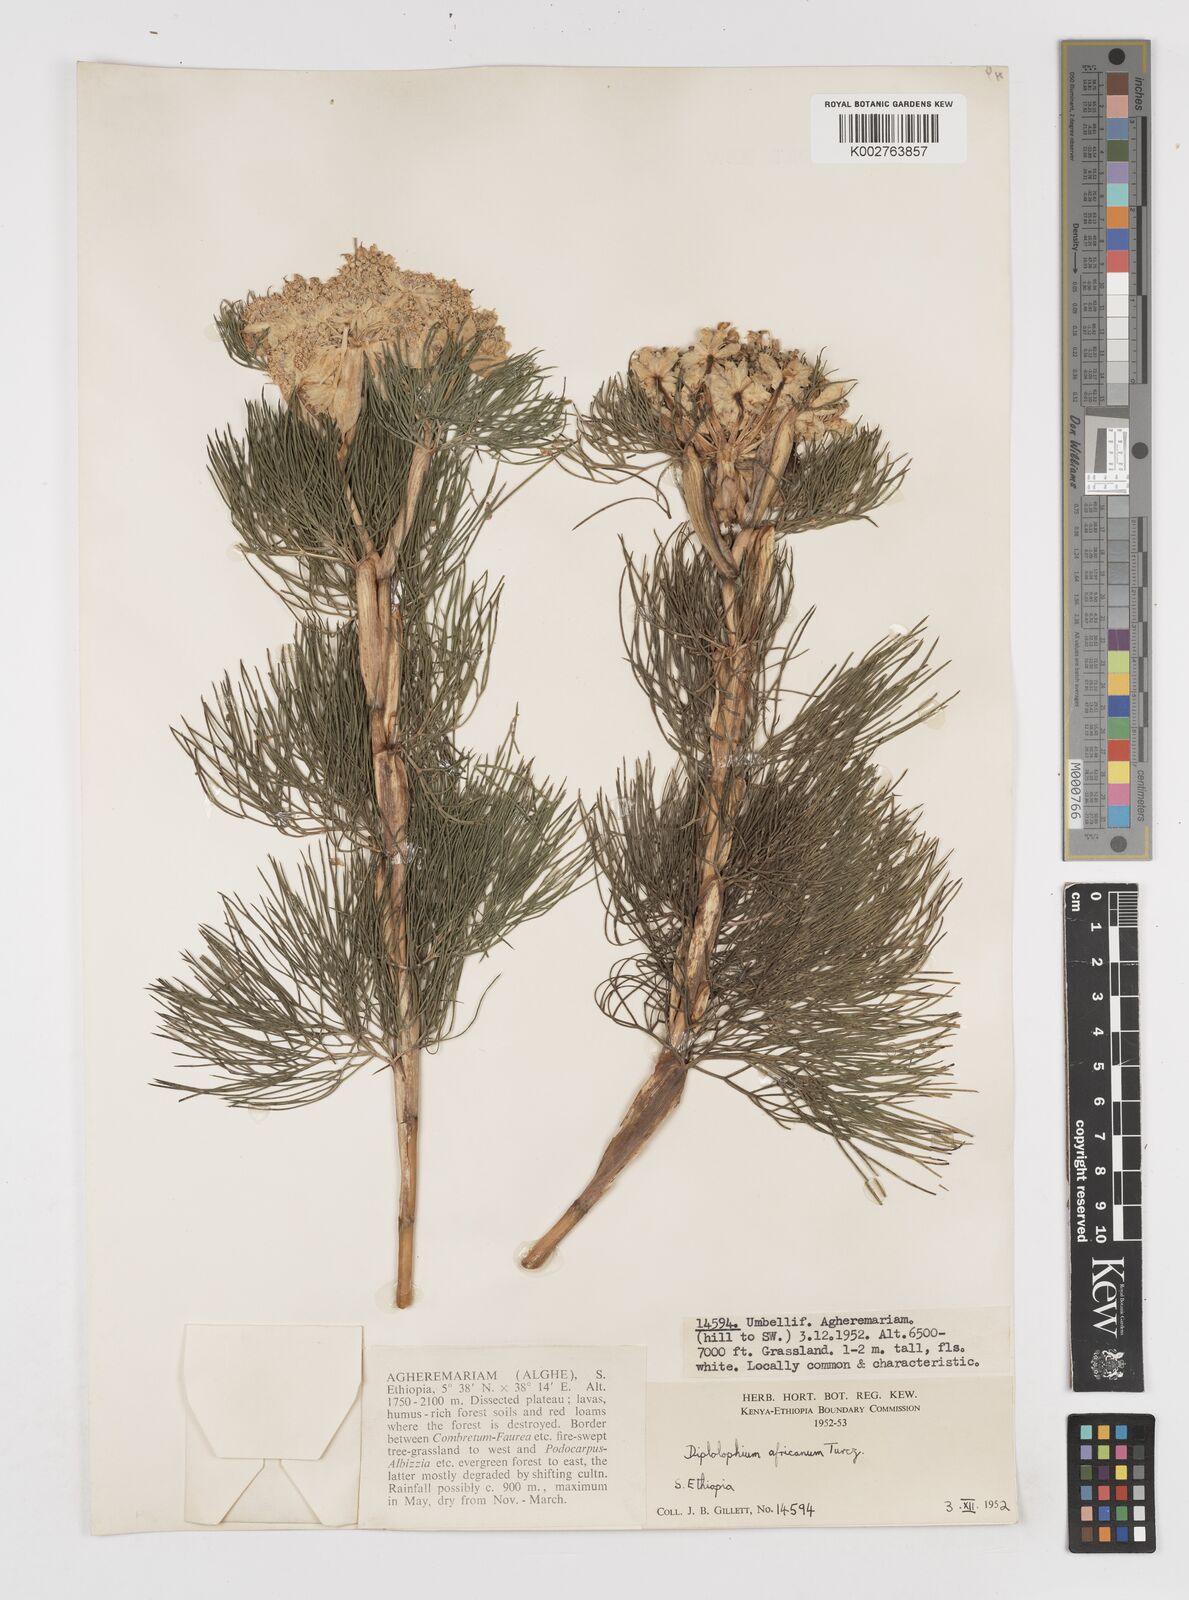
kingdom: Plantae
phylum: Tracheophyta
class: Magnoliopsida
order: Apiales
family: Apiaceae
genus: Diplolophium
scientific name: Diplolophium africanum
